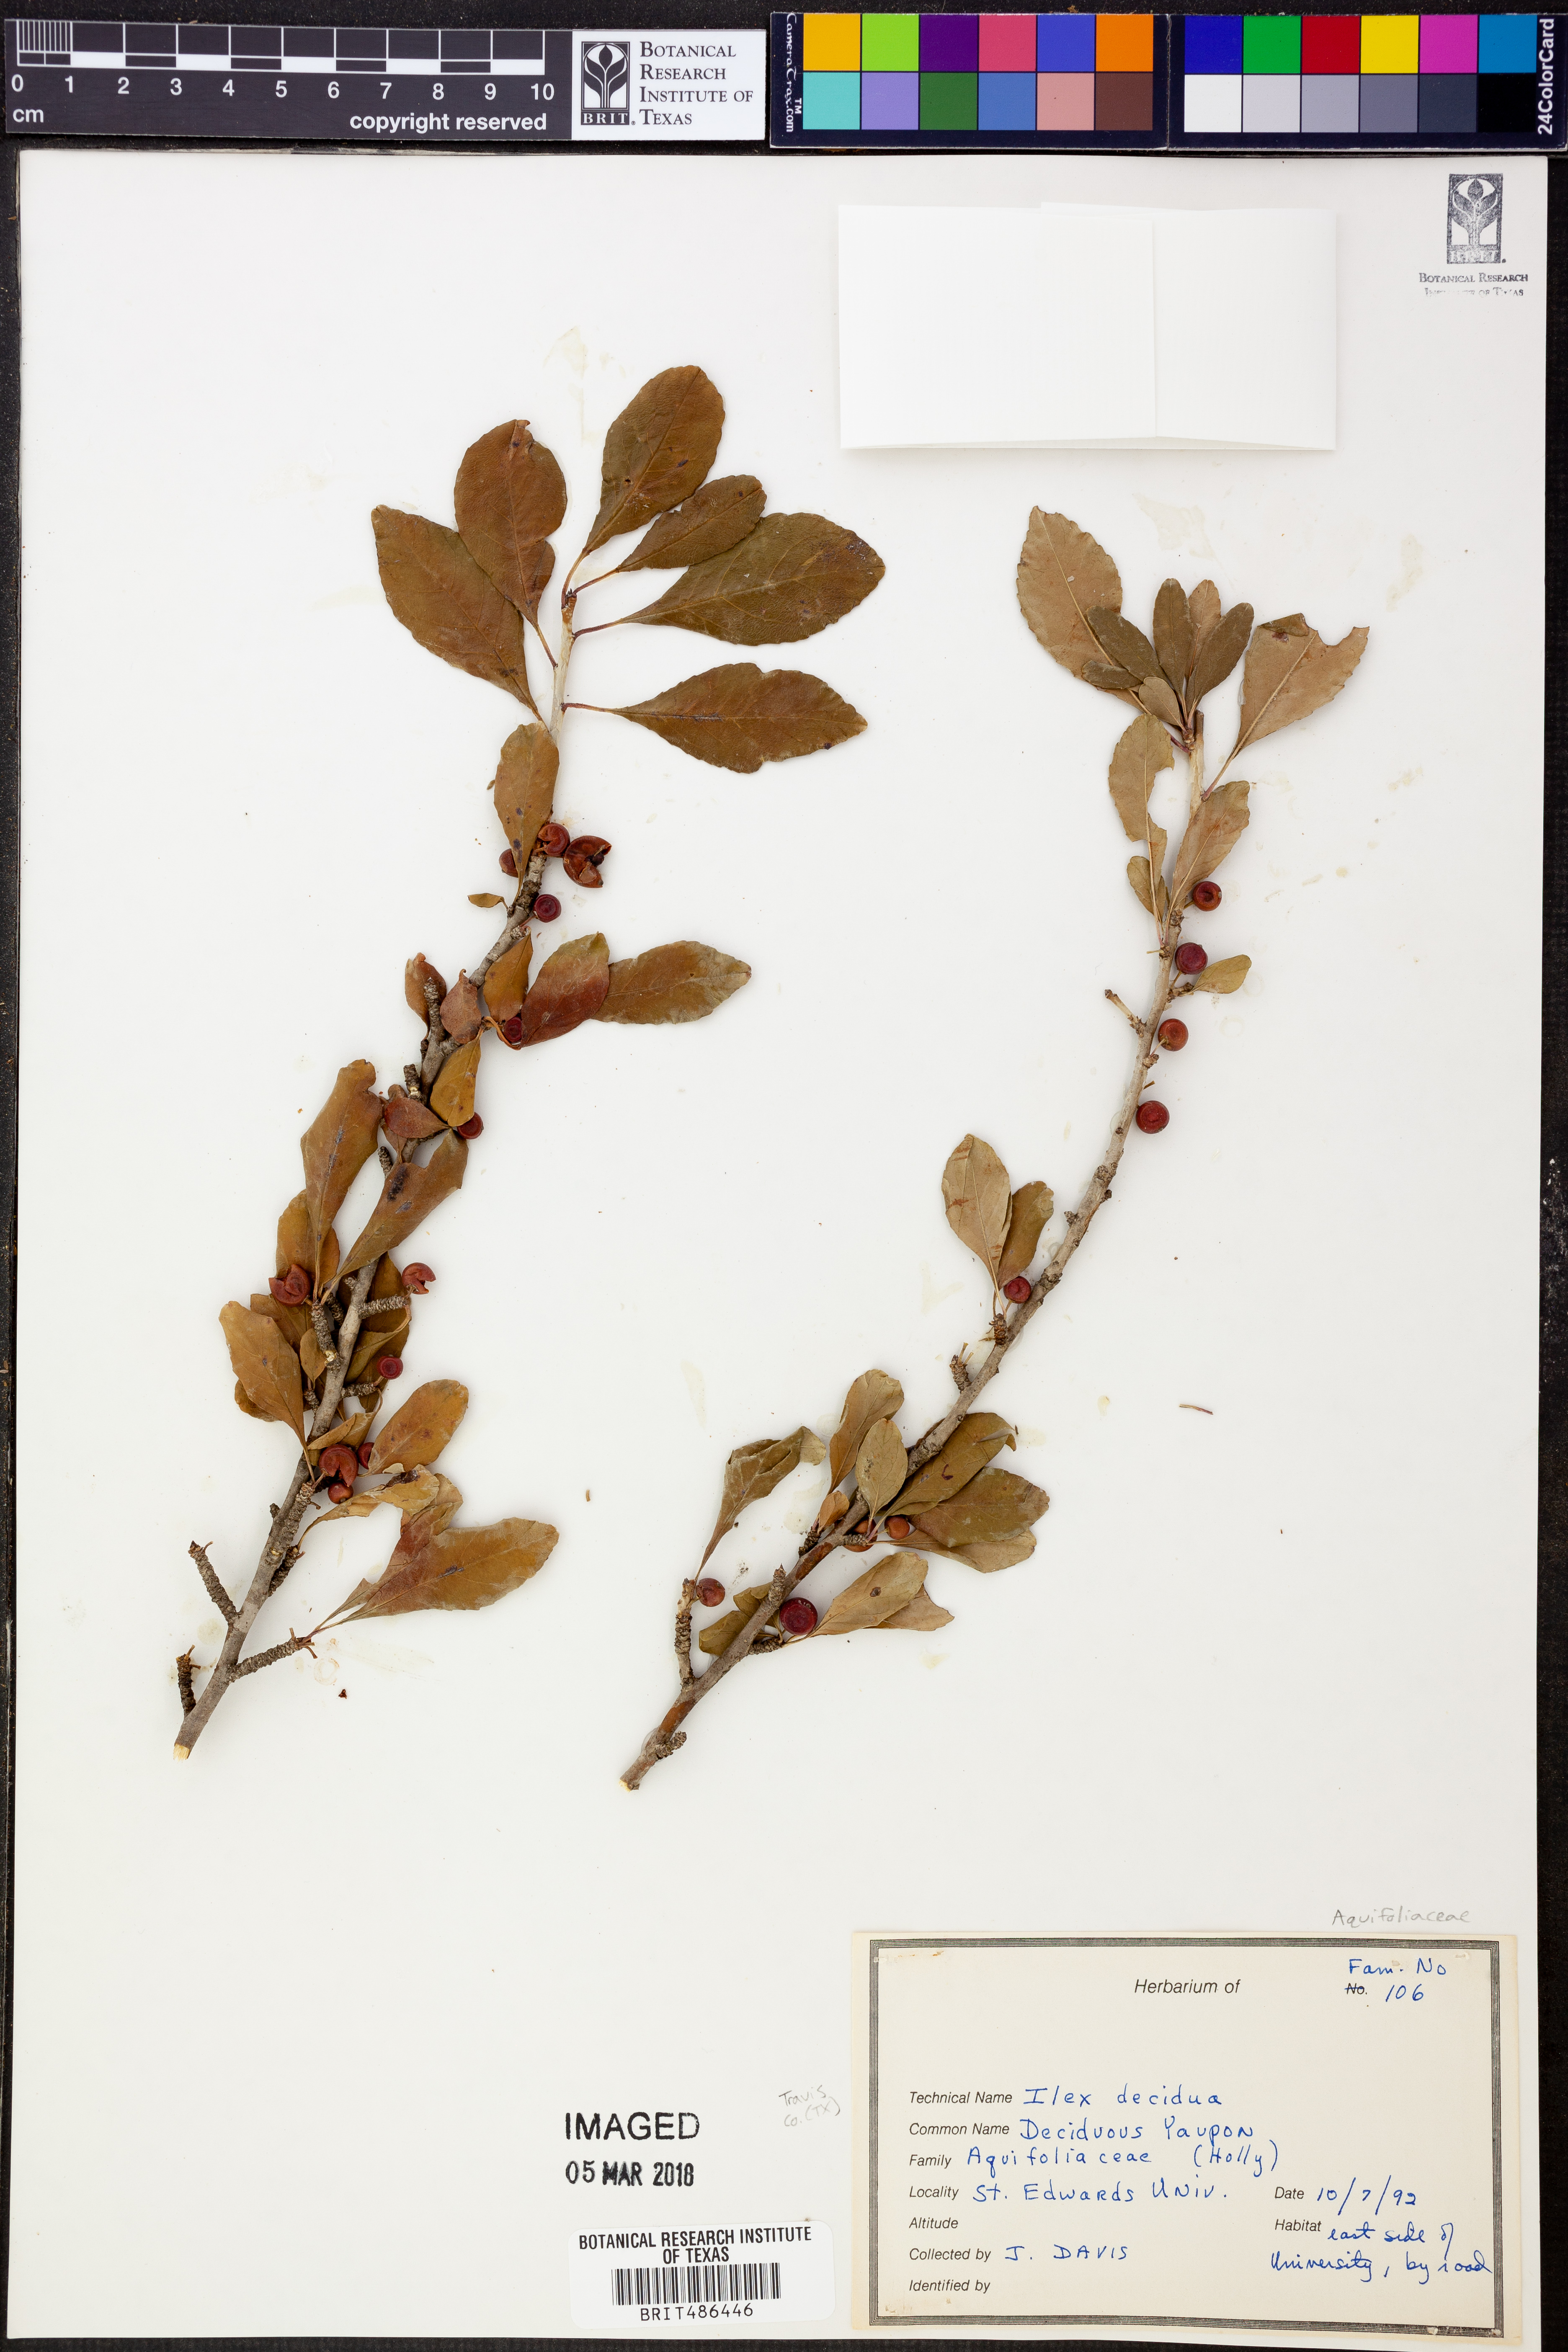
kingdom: Plantae
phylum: Tracheophyta
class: Magnoliopsida
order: Aquifoliales
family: Aquifoliaceae
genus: Ilex
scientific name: Ilex decidua
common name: Possum-haw
